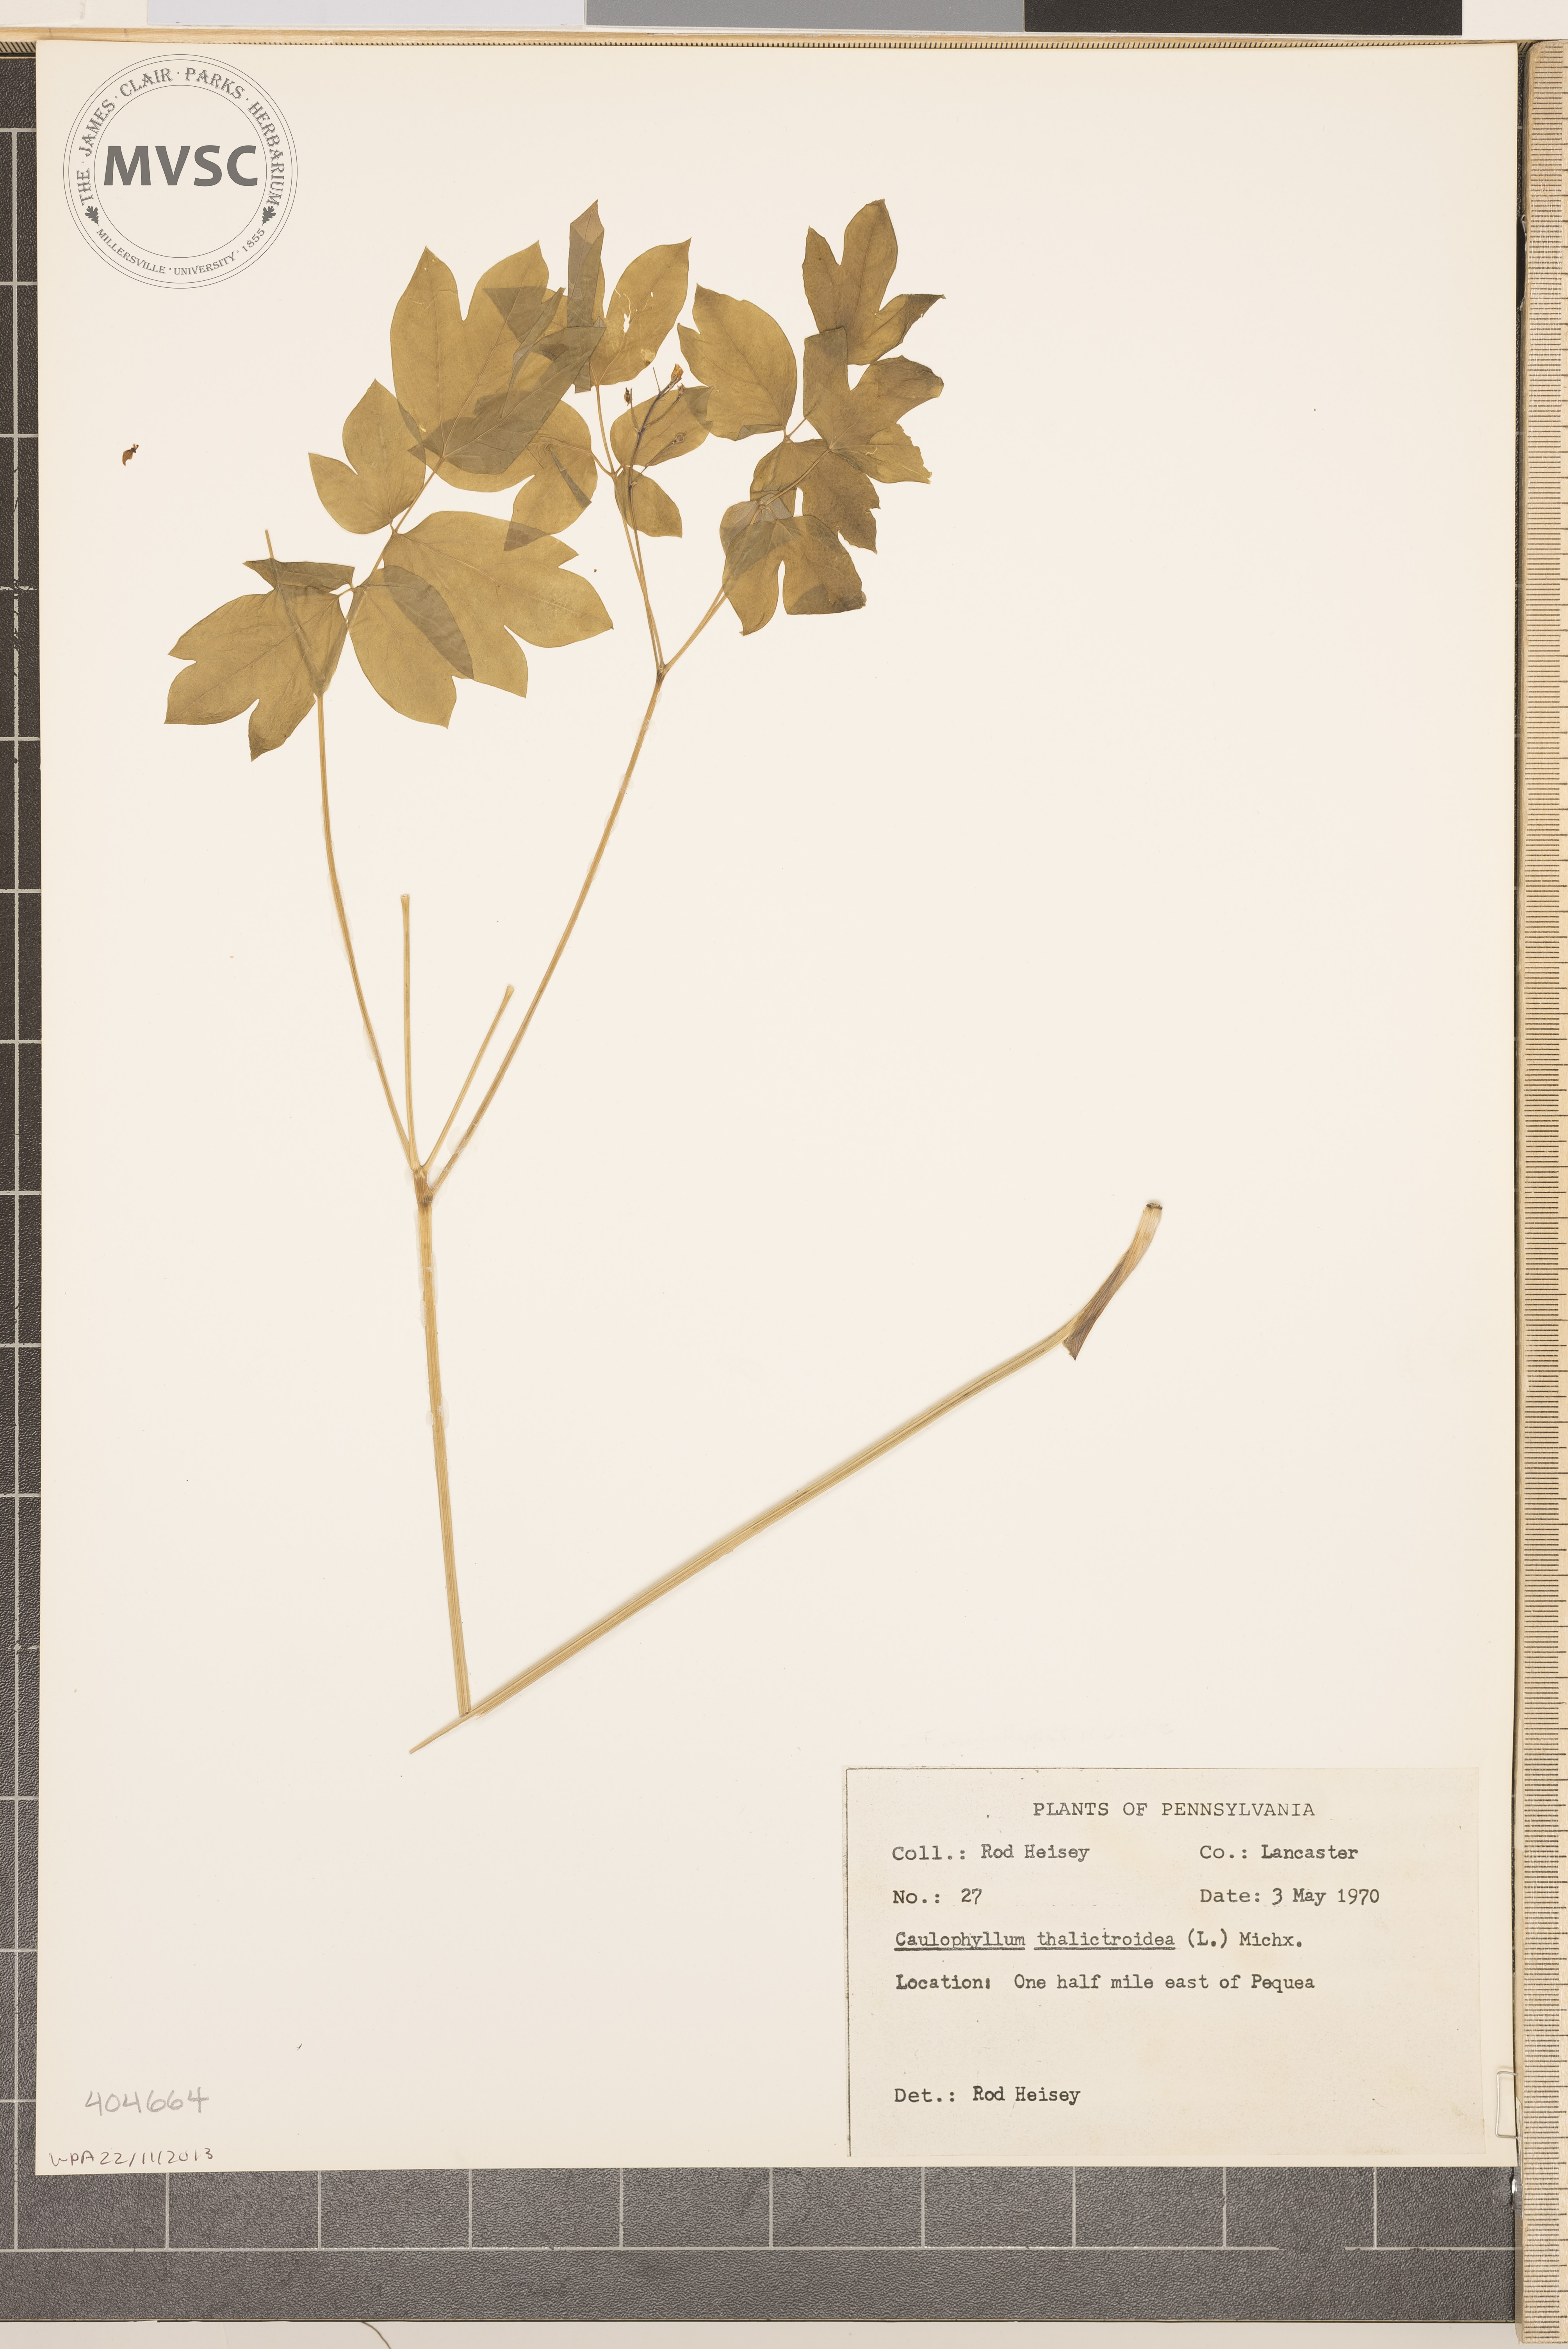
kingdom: Plantae
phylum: Tracheophyta
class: Magnoliopsida
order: Ranunculales
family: Berberidaceae
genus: Caulophyllum
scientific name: Caulophyllum thalictroides
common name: Blue cohosh
